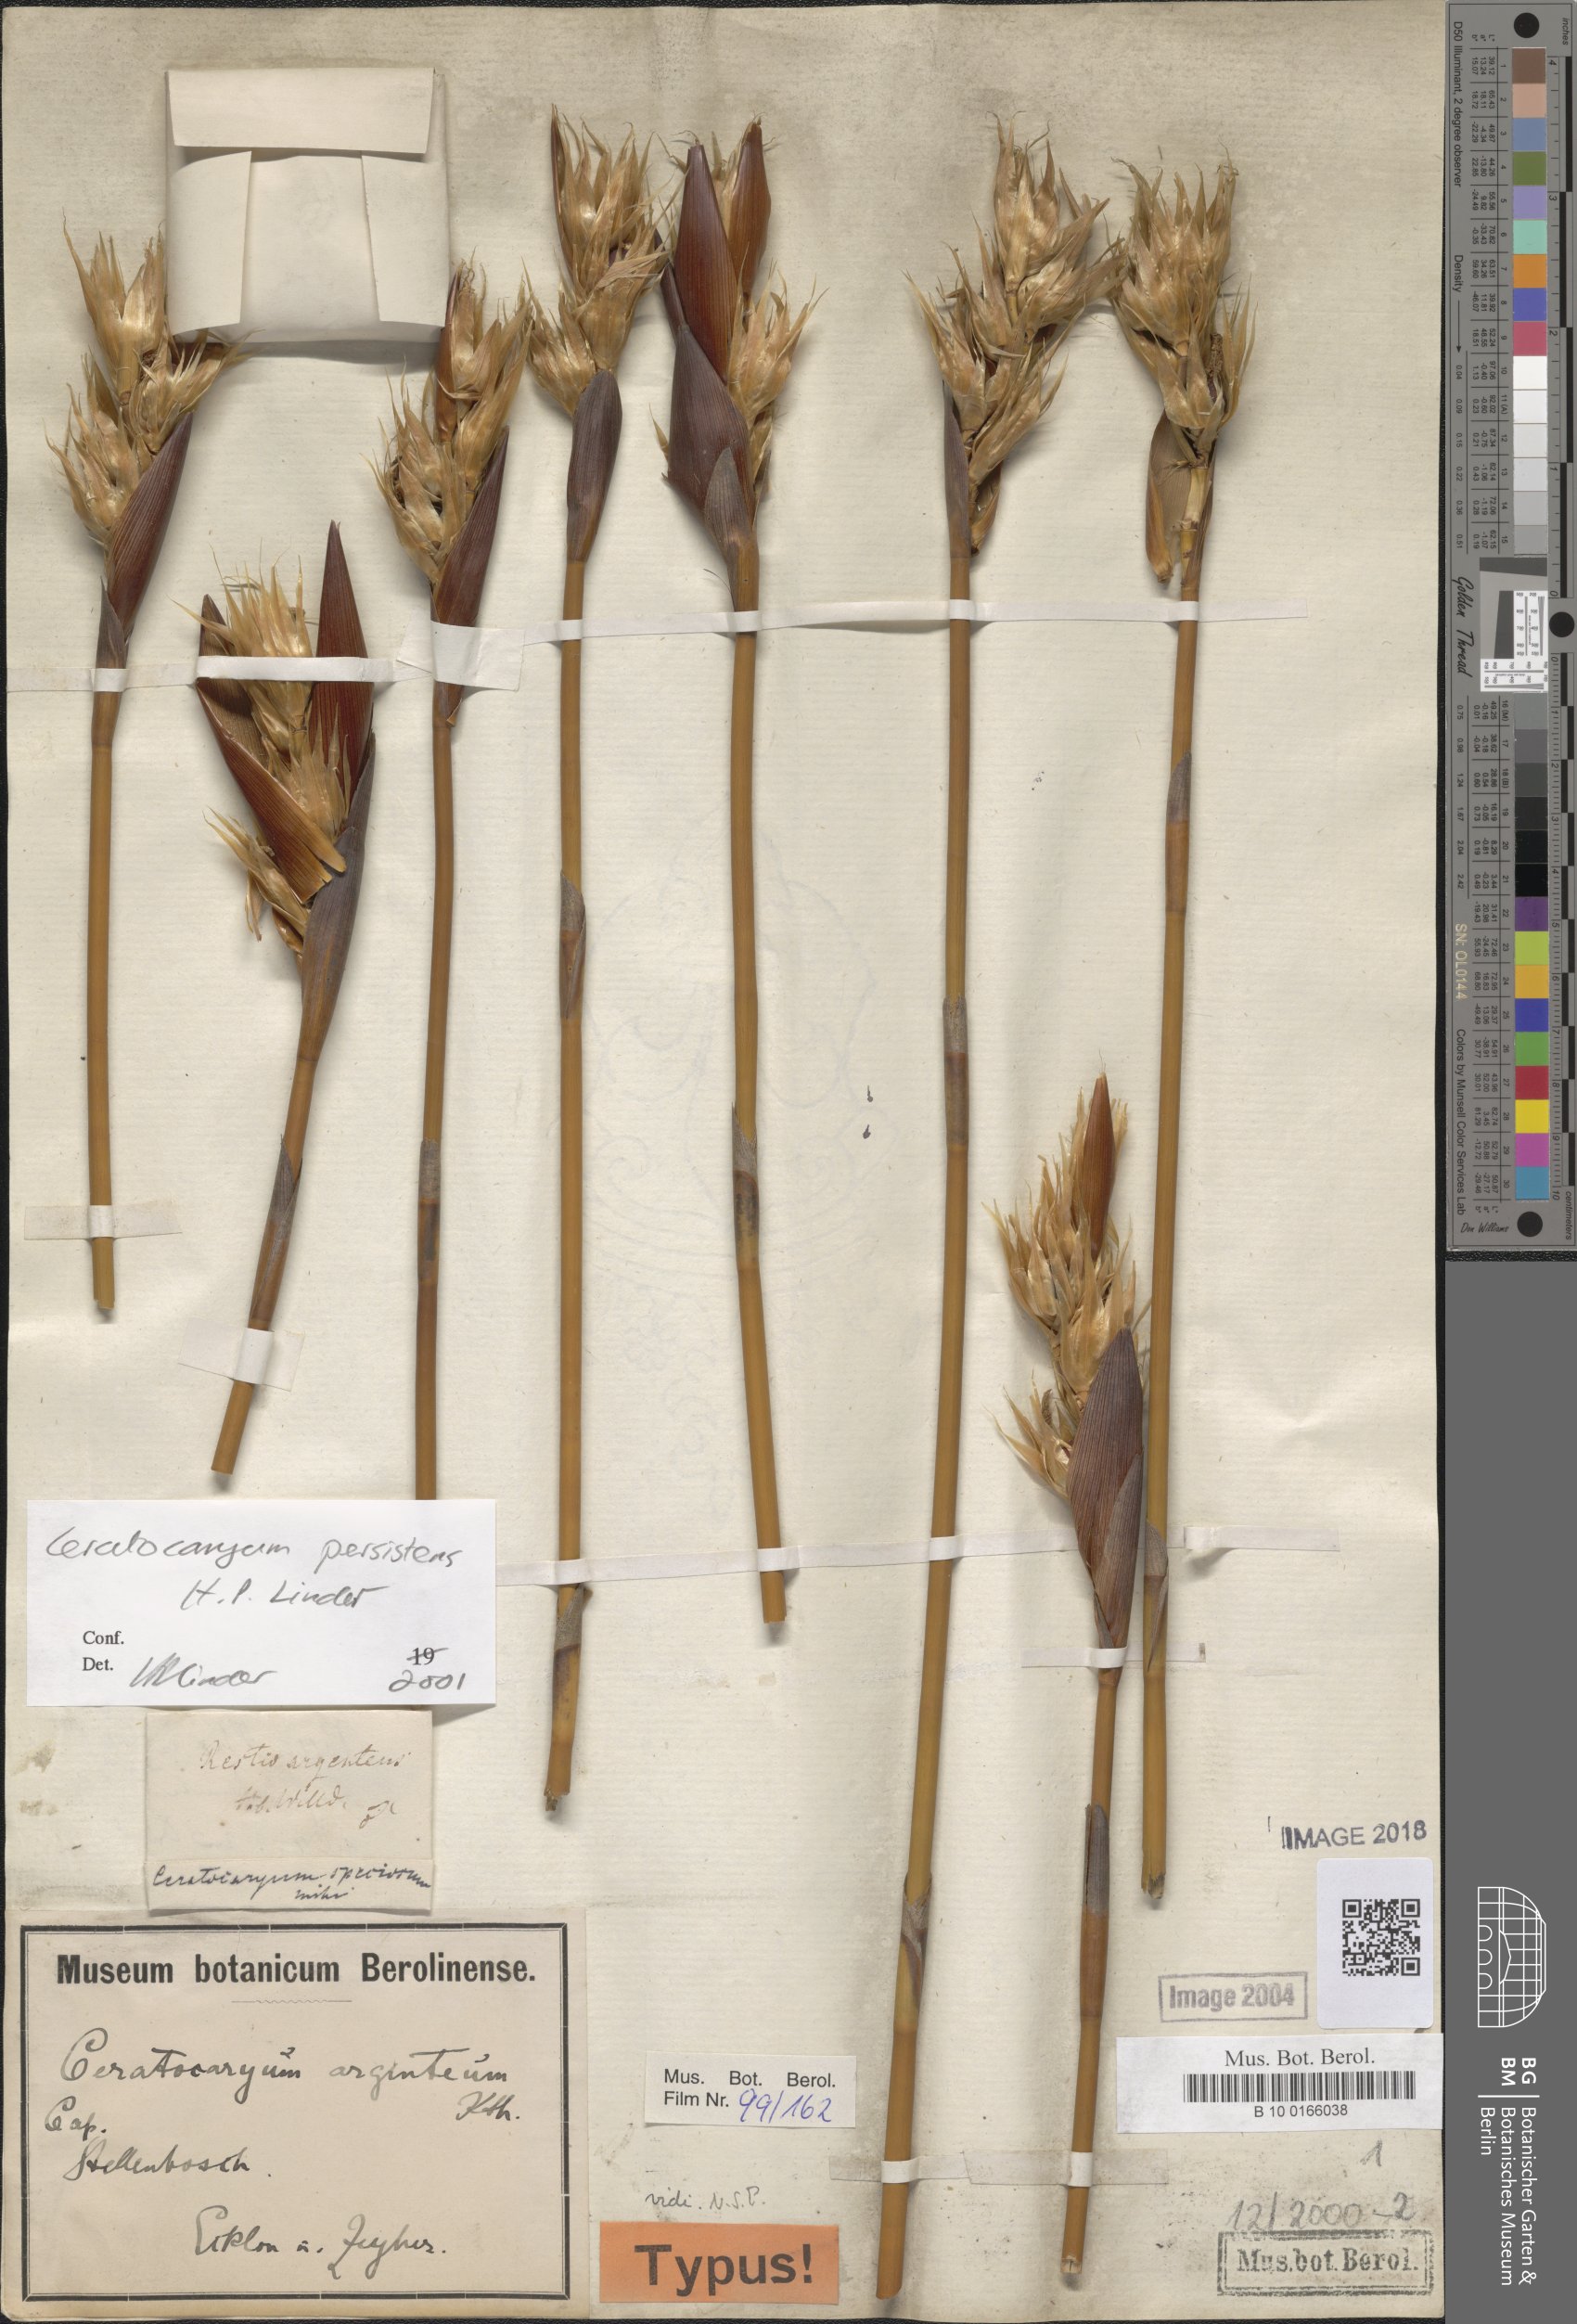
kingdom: Plantae
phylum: Tracheophyta
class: Liliopsida
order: Poales
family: Restionaceae
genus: Ceratocaryum
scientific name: Ceratocaryum persistens
